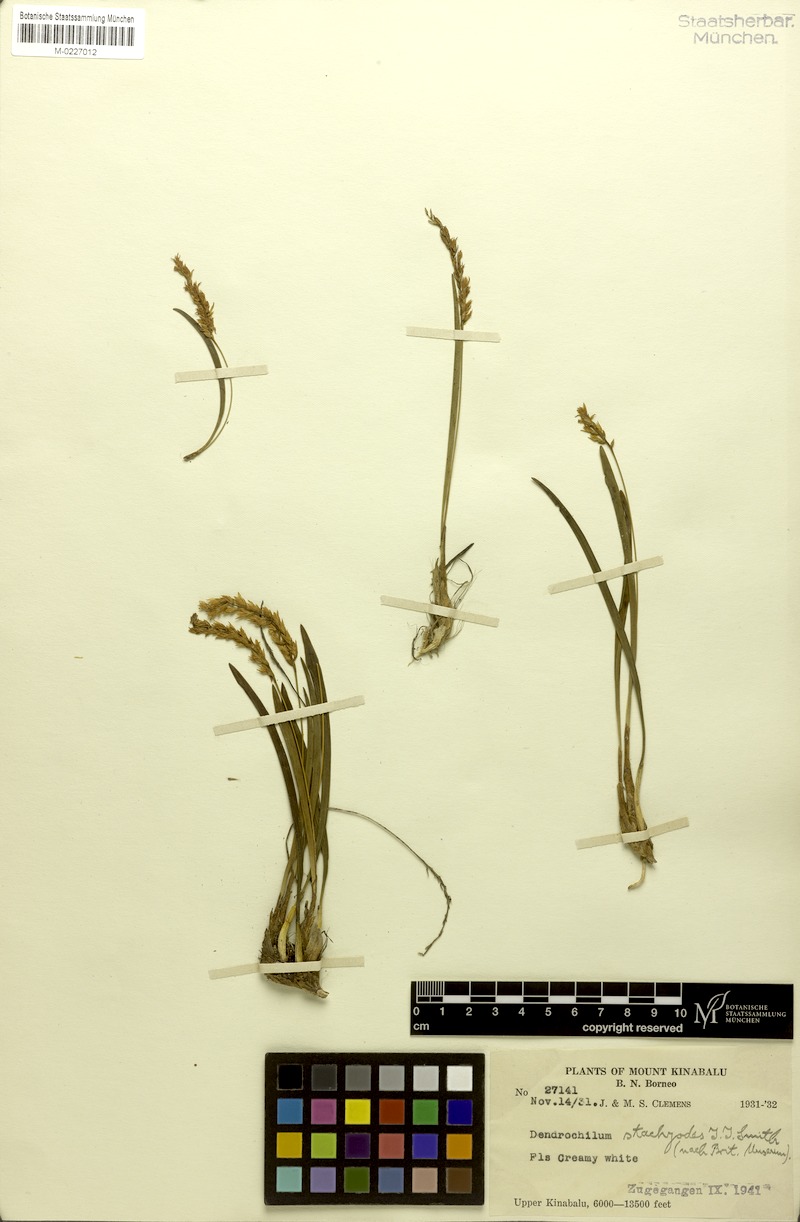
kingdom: Plantae
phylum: Tracheophyta
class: Liliopsida
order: Asparagales
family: Orchidaceae
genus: Coelogyne
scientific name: Coelogyne stachyodes
